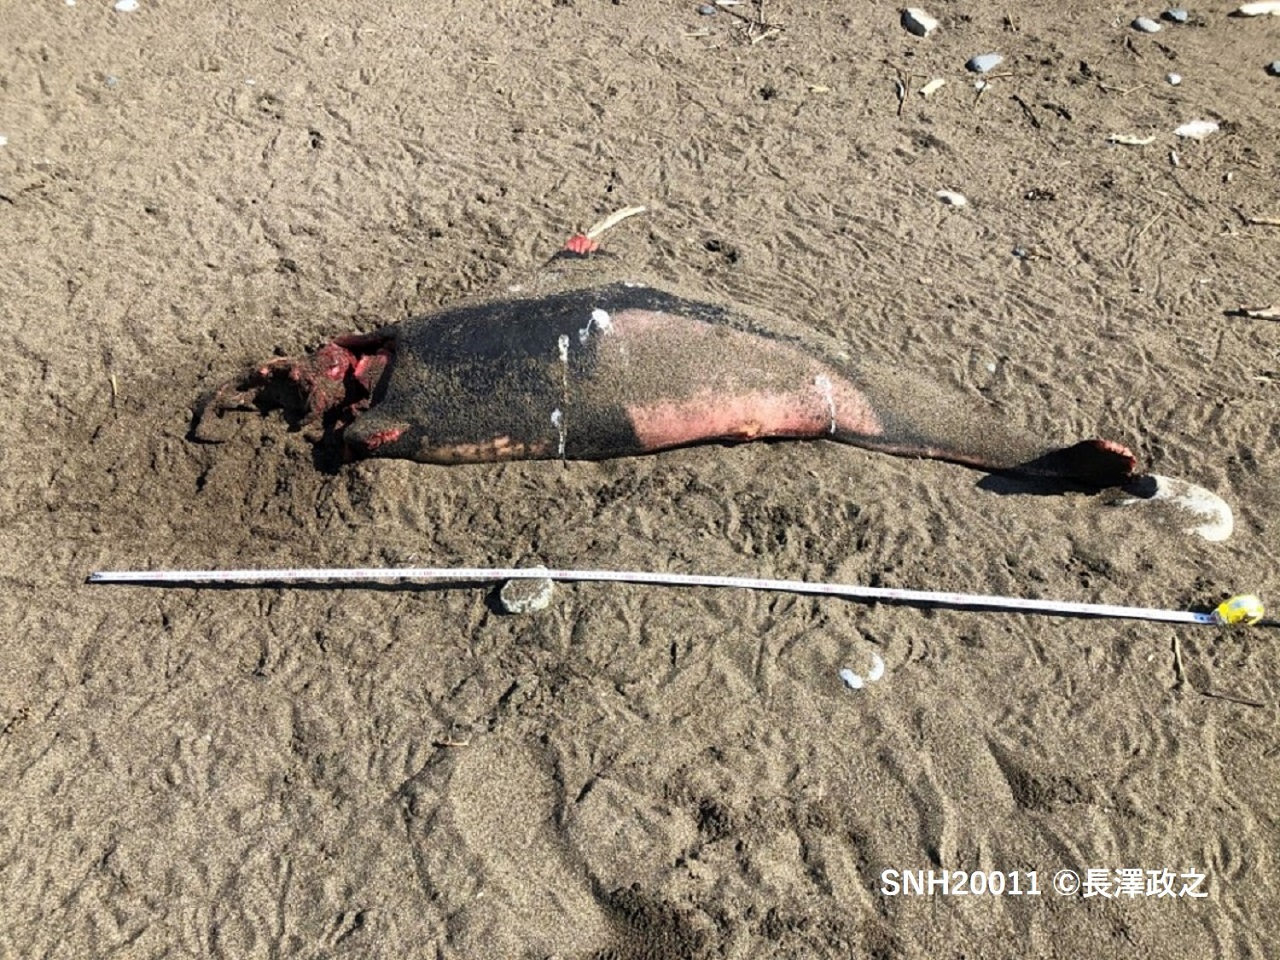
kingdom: Animalia
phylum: Chordata
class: Mammalia
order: Cetacea
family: Phocoenidae
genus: Phocoenoides
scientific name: Phocoenoides dalli
